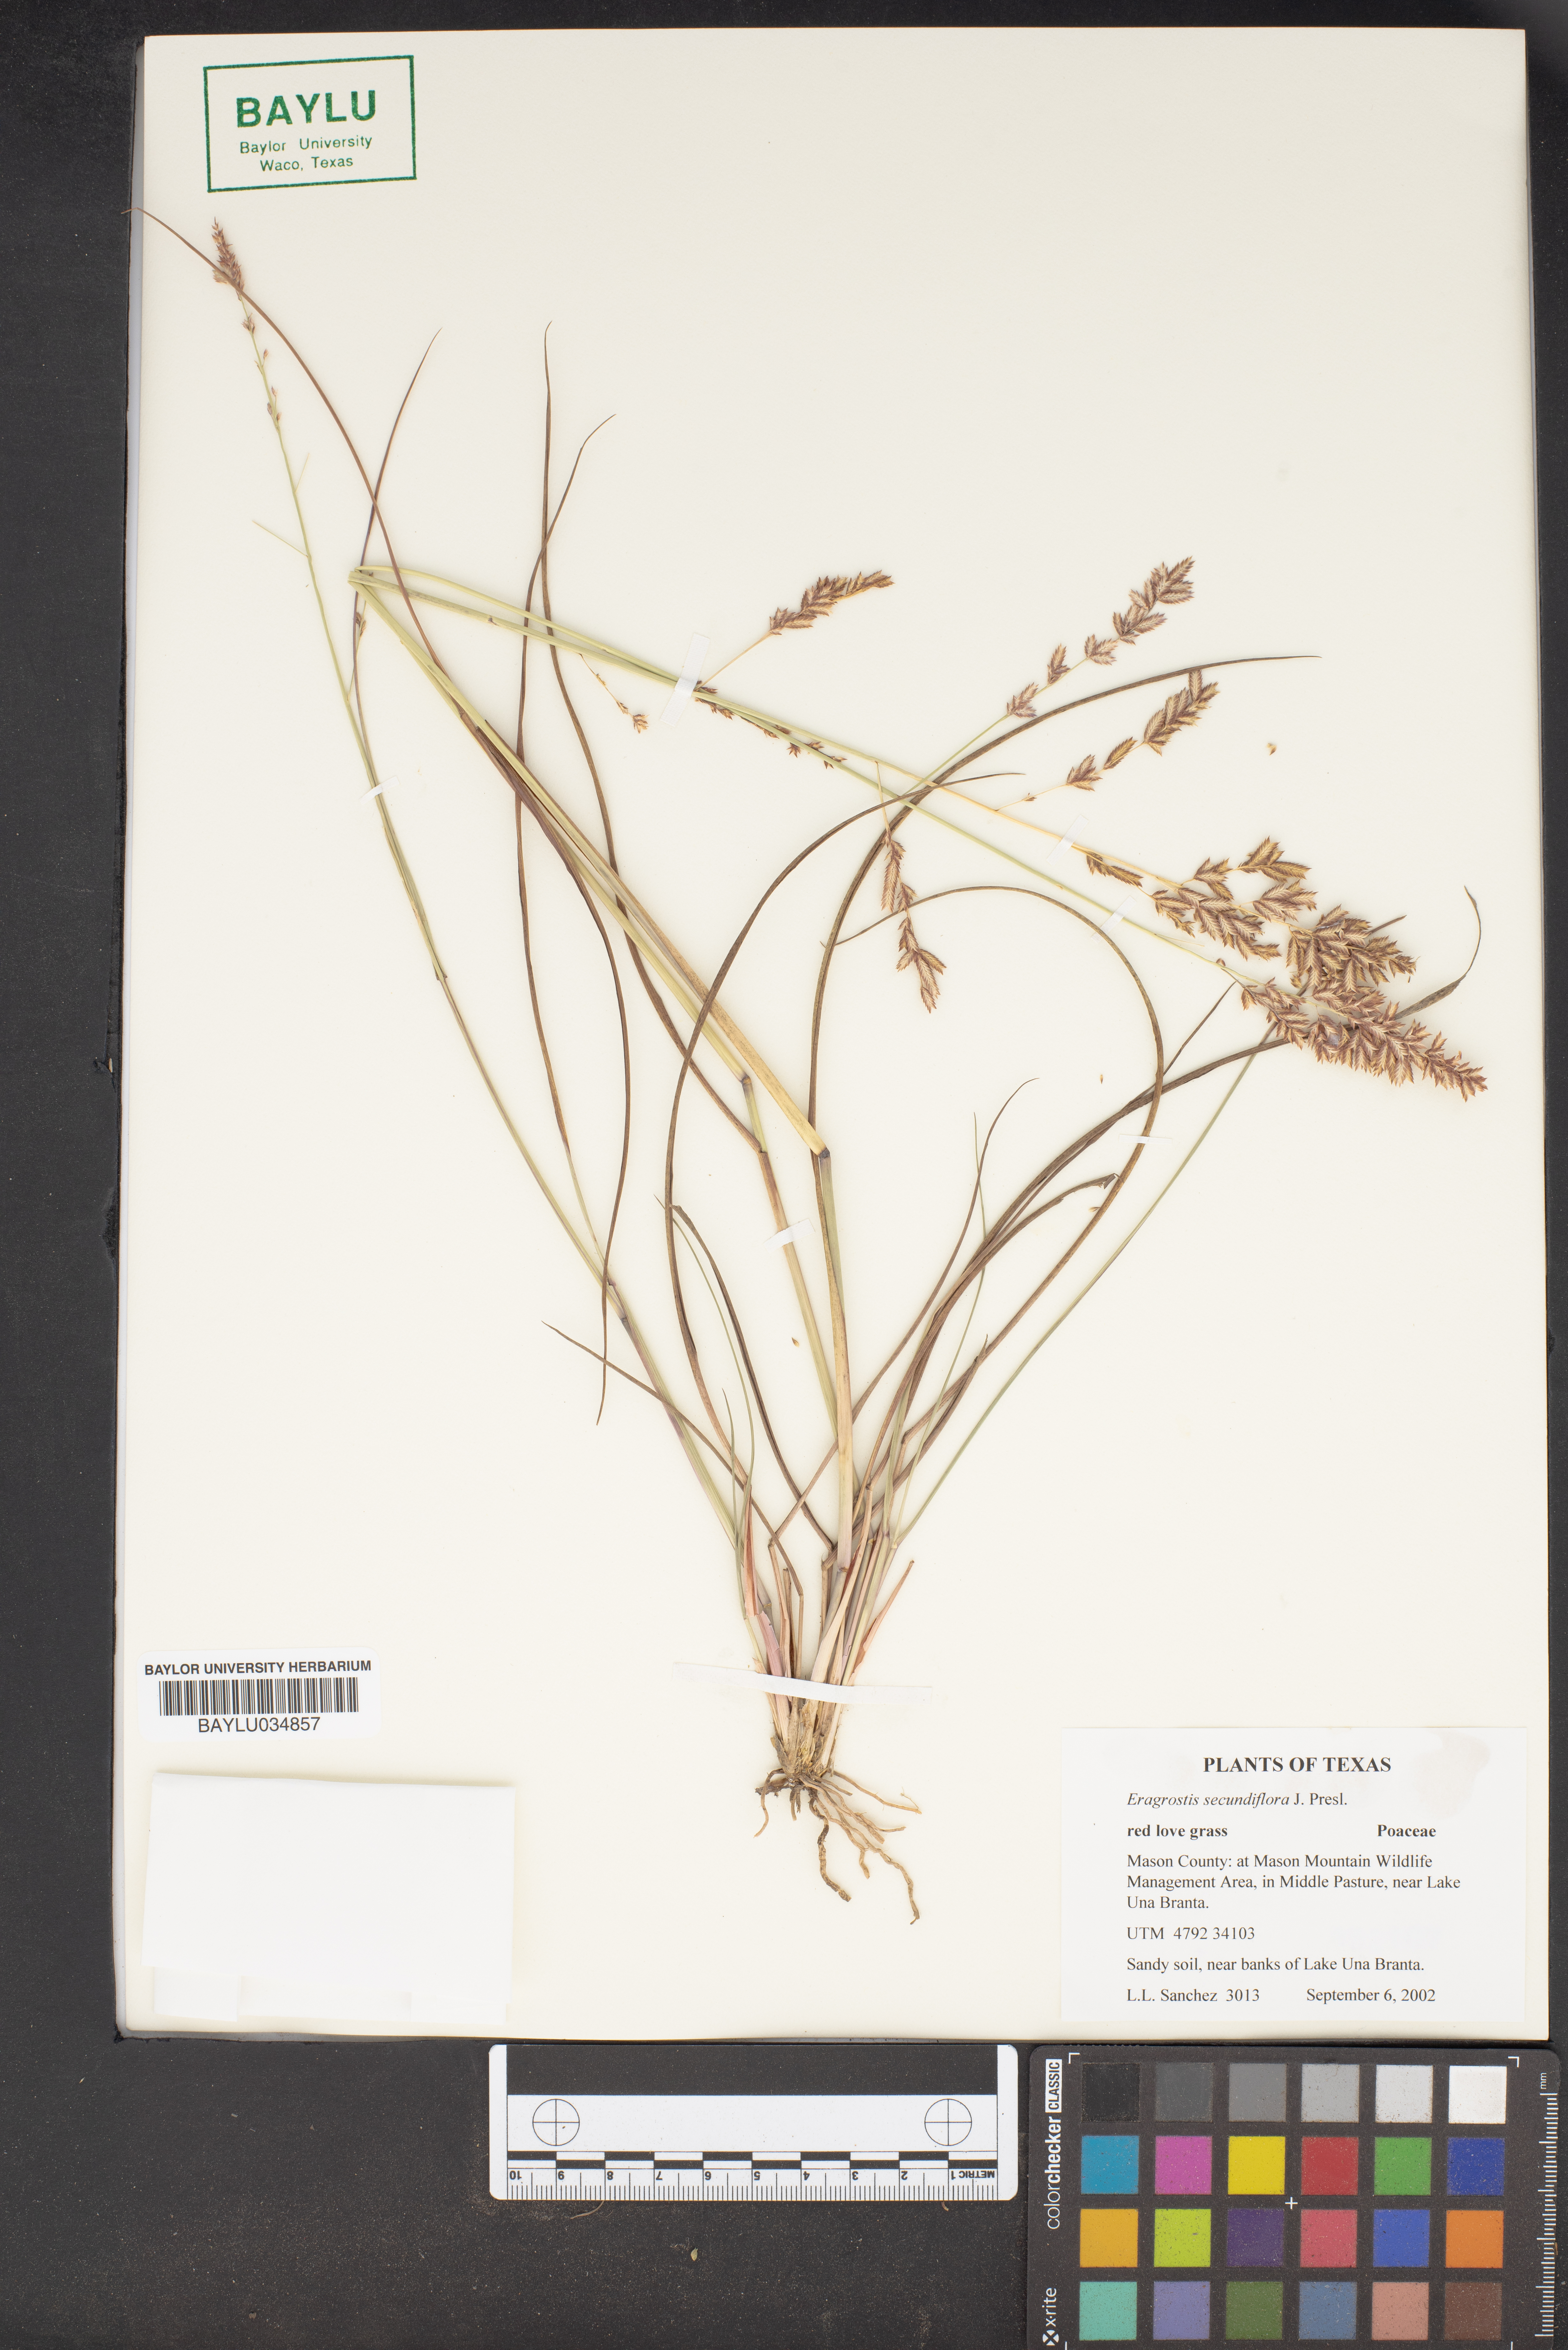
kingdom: Plantae
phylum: Tracheophyta
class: Liliopsida
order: Poales
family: Poaceae
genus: Eragrostis
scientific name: Eragrostis secundiflora
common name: Red love grass
